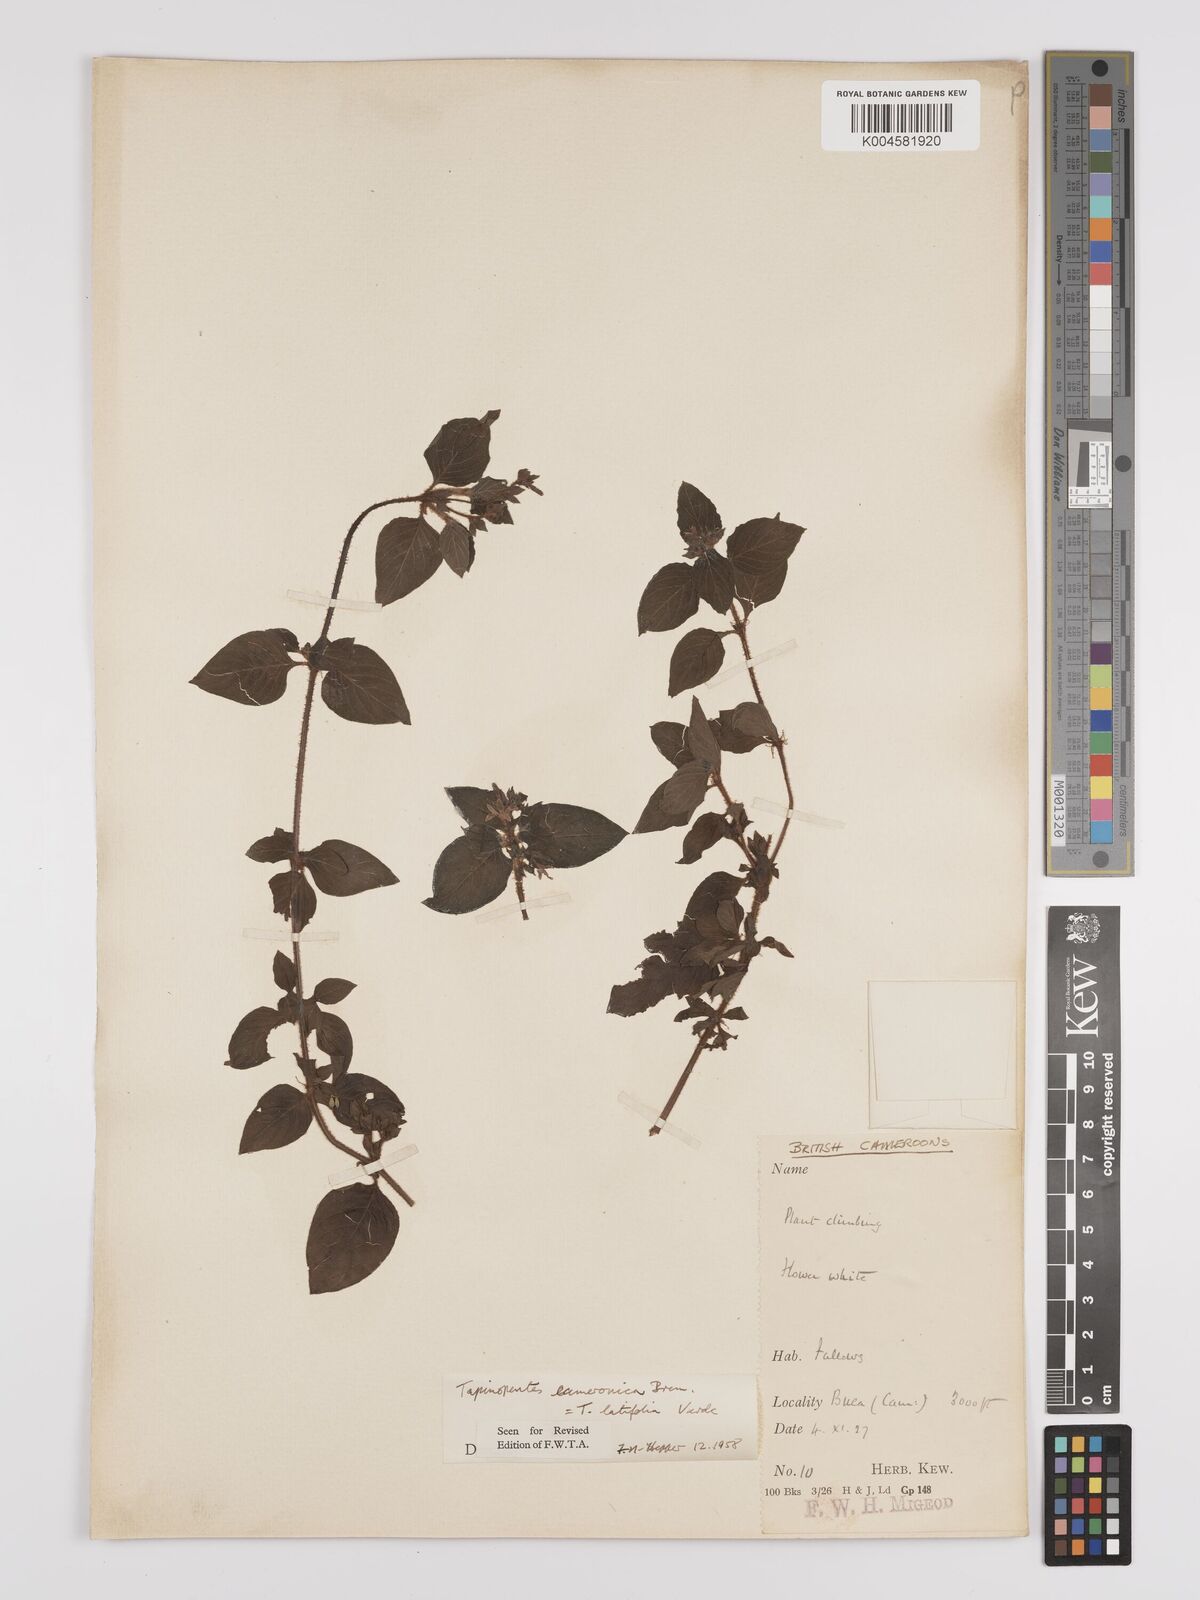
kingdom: Plantae
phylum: Tracheophyta
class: Magnoliopsida
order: Gentianales
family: Rubiaceae
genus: Otomeria
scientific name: Otomeria cameronica
